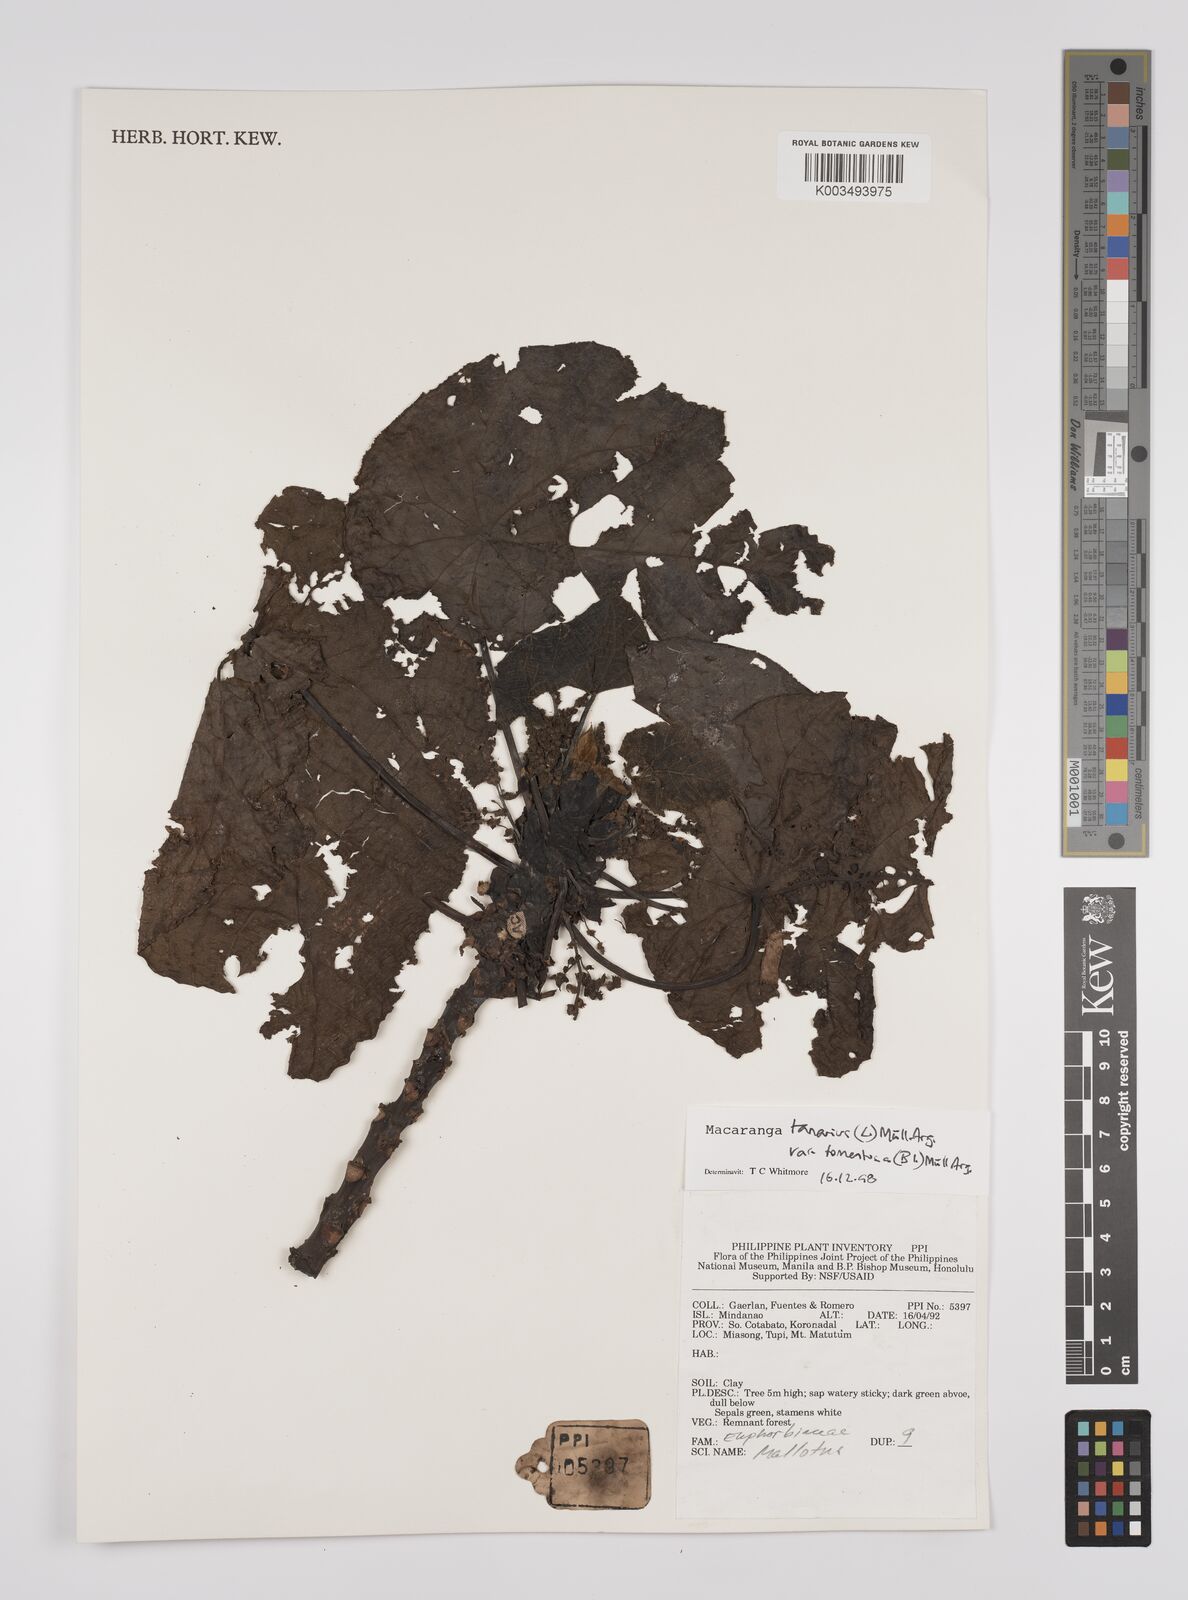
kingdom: Plantae
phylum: Tracheophyta
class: Magnoliopsida
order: Malpighiales
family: Euphorbiaceae
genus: Macaranga
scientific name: Macaranga tanarius
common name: Parasol leaf tree
